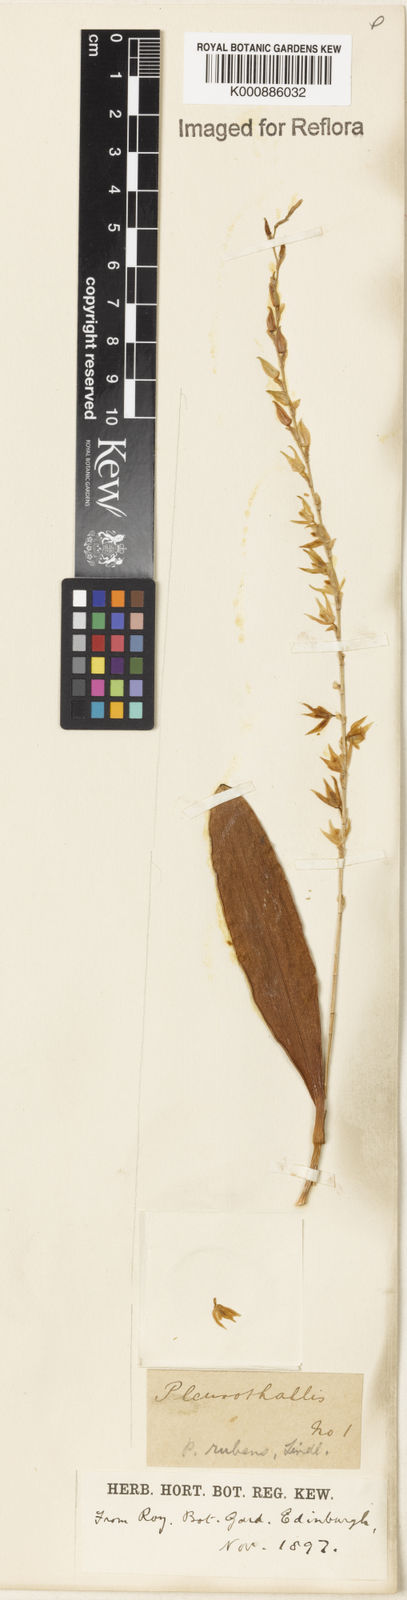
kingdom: Plantae
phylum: Tracheophyta
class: Liliopsida
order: Asparagales
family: Orchidaceae
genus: Stelis
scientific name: Stelis montserratii
